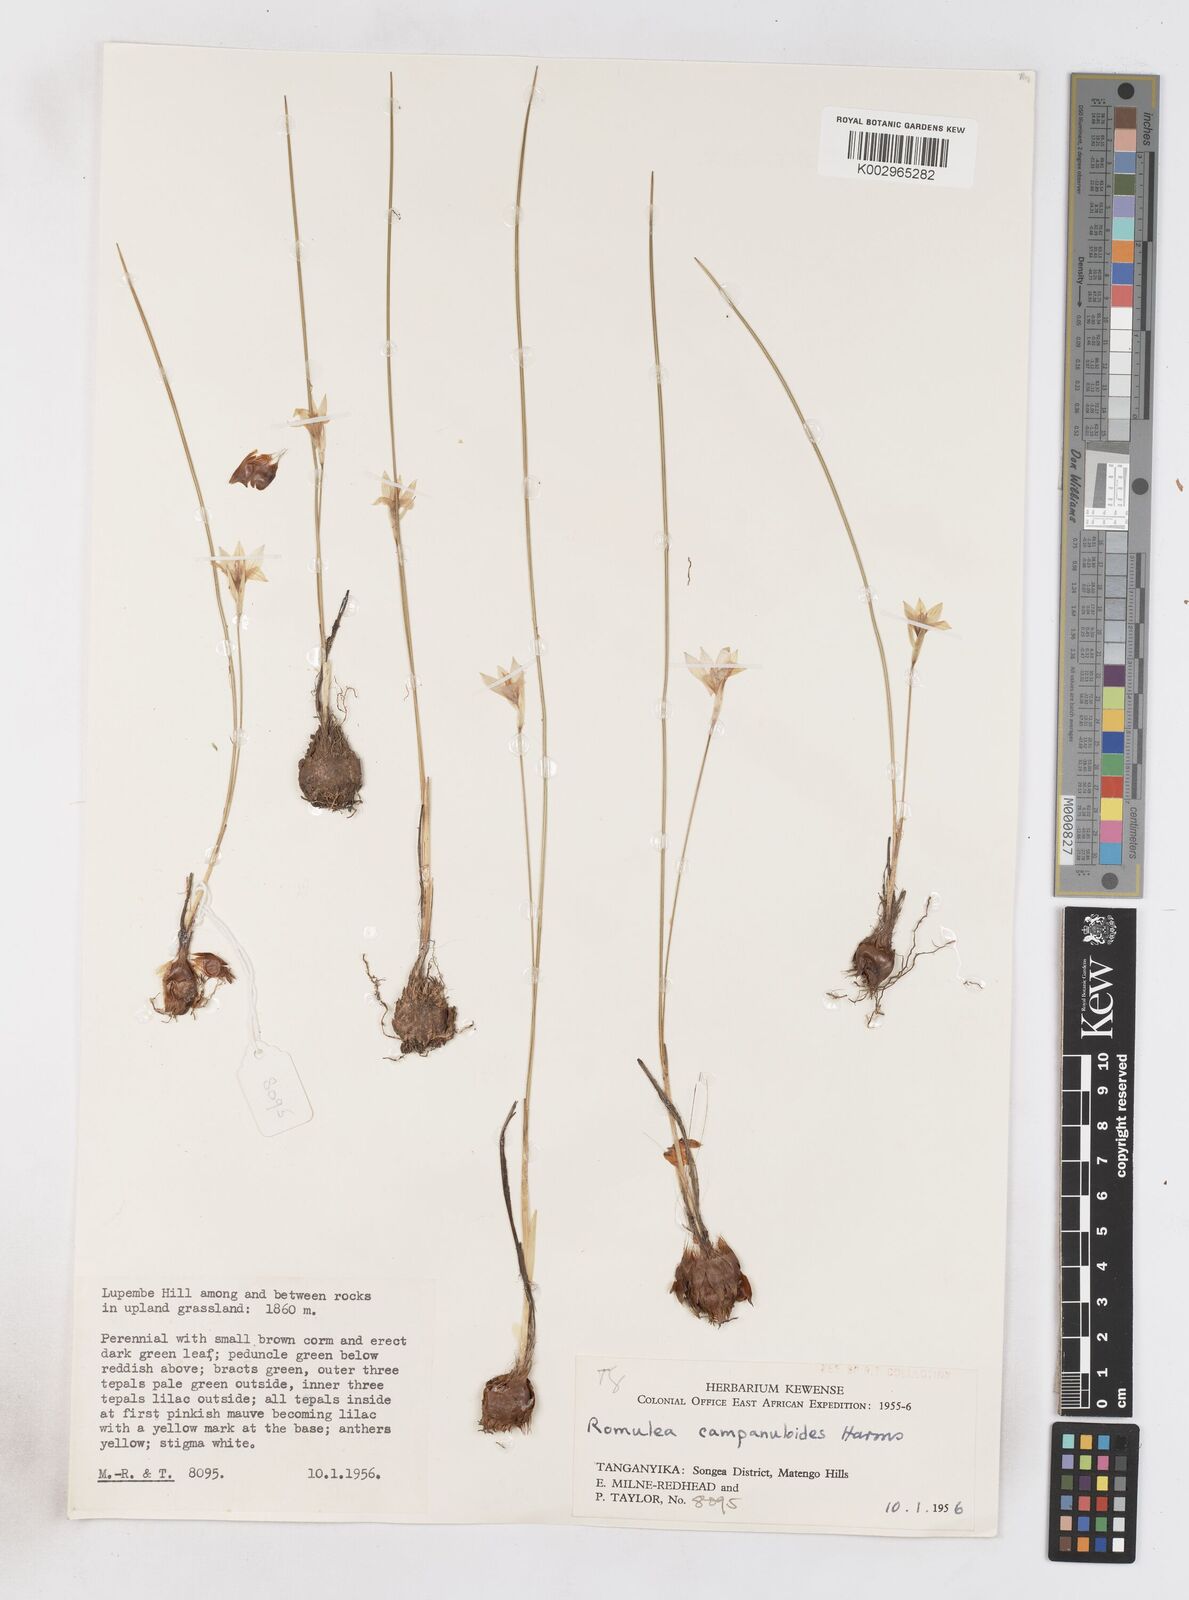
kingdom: Plantae
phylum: Tracheophyta
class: Liliopsida
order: Asparagales
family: Iridaceae
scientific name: Iridaceae
